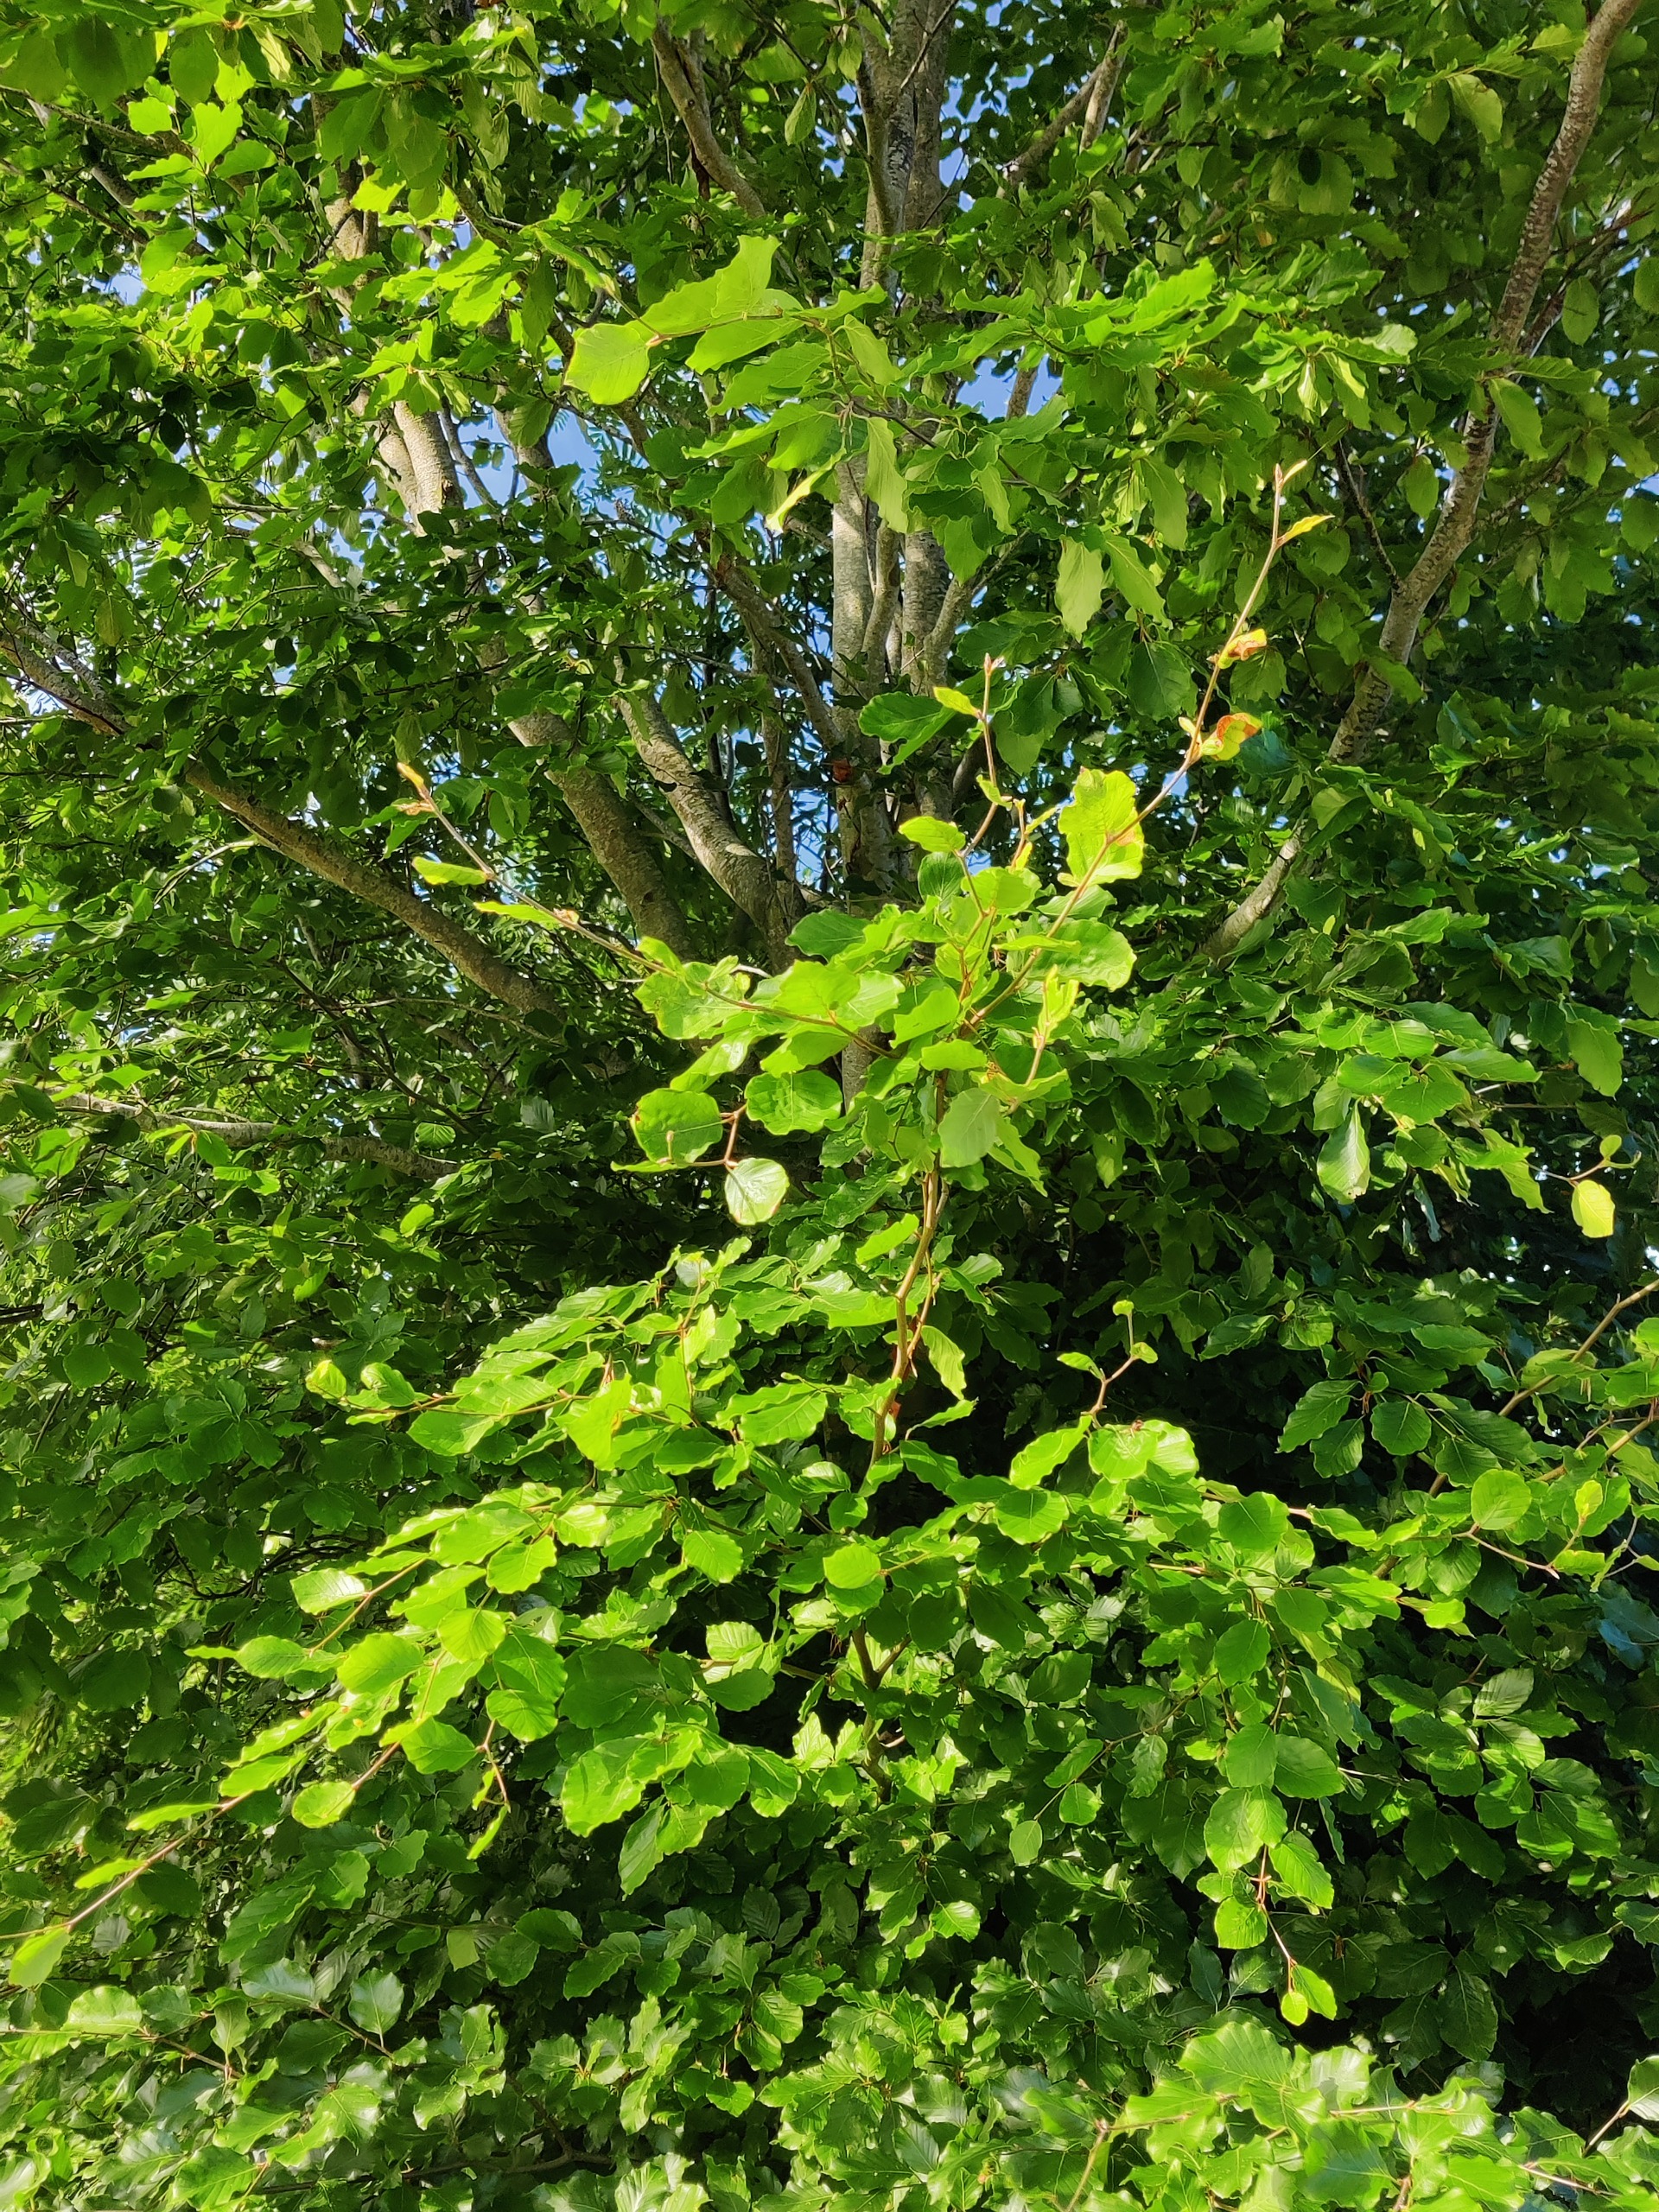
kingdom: Plantae
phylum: Tracheophyta
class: Magnoliopsida
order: Fagales
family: Fagaceae
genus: Fagus
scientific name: Fagus sylvatica
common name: Bøg
